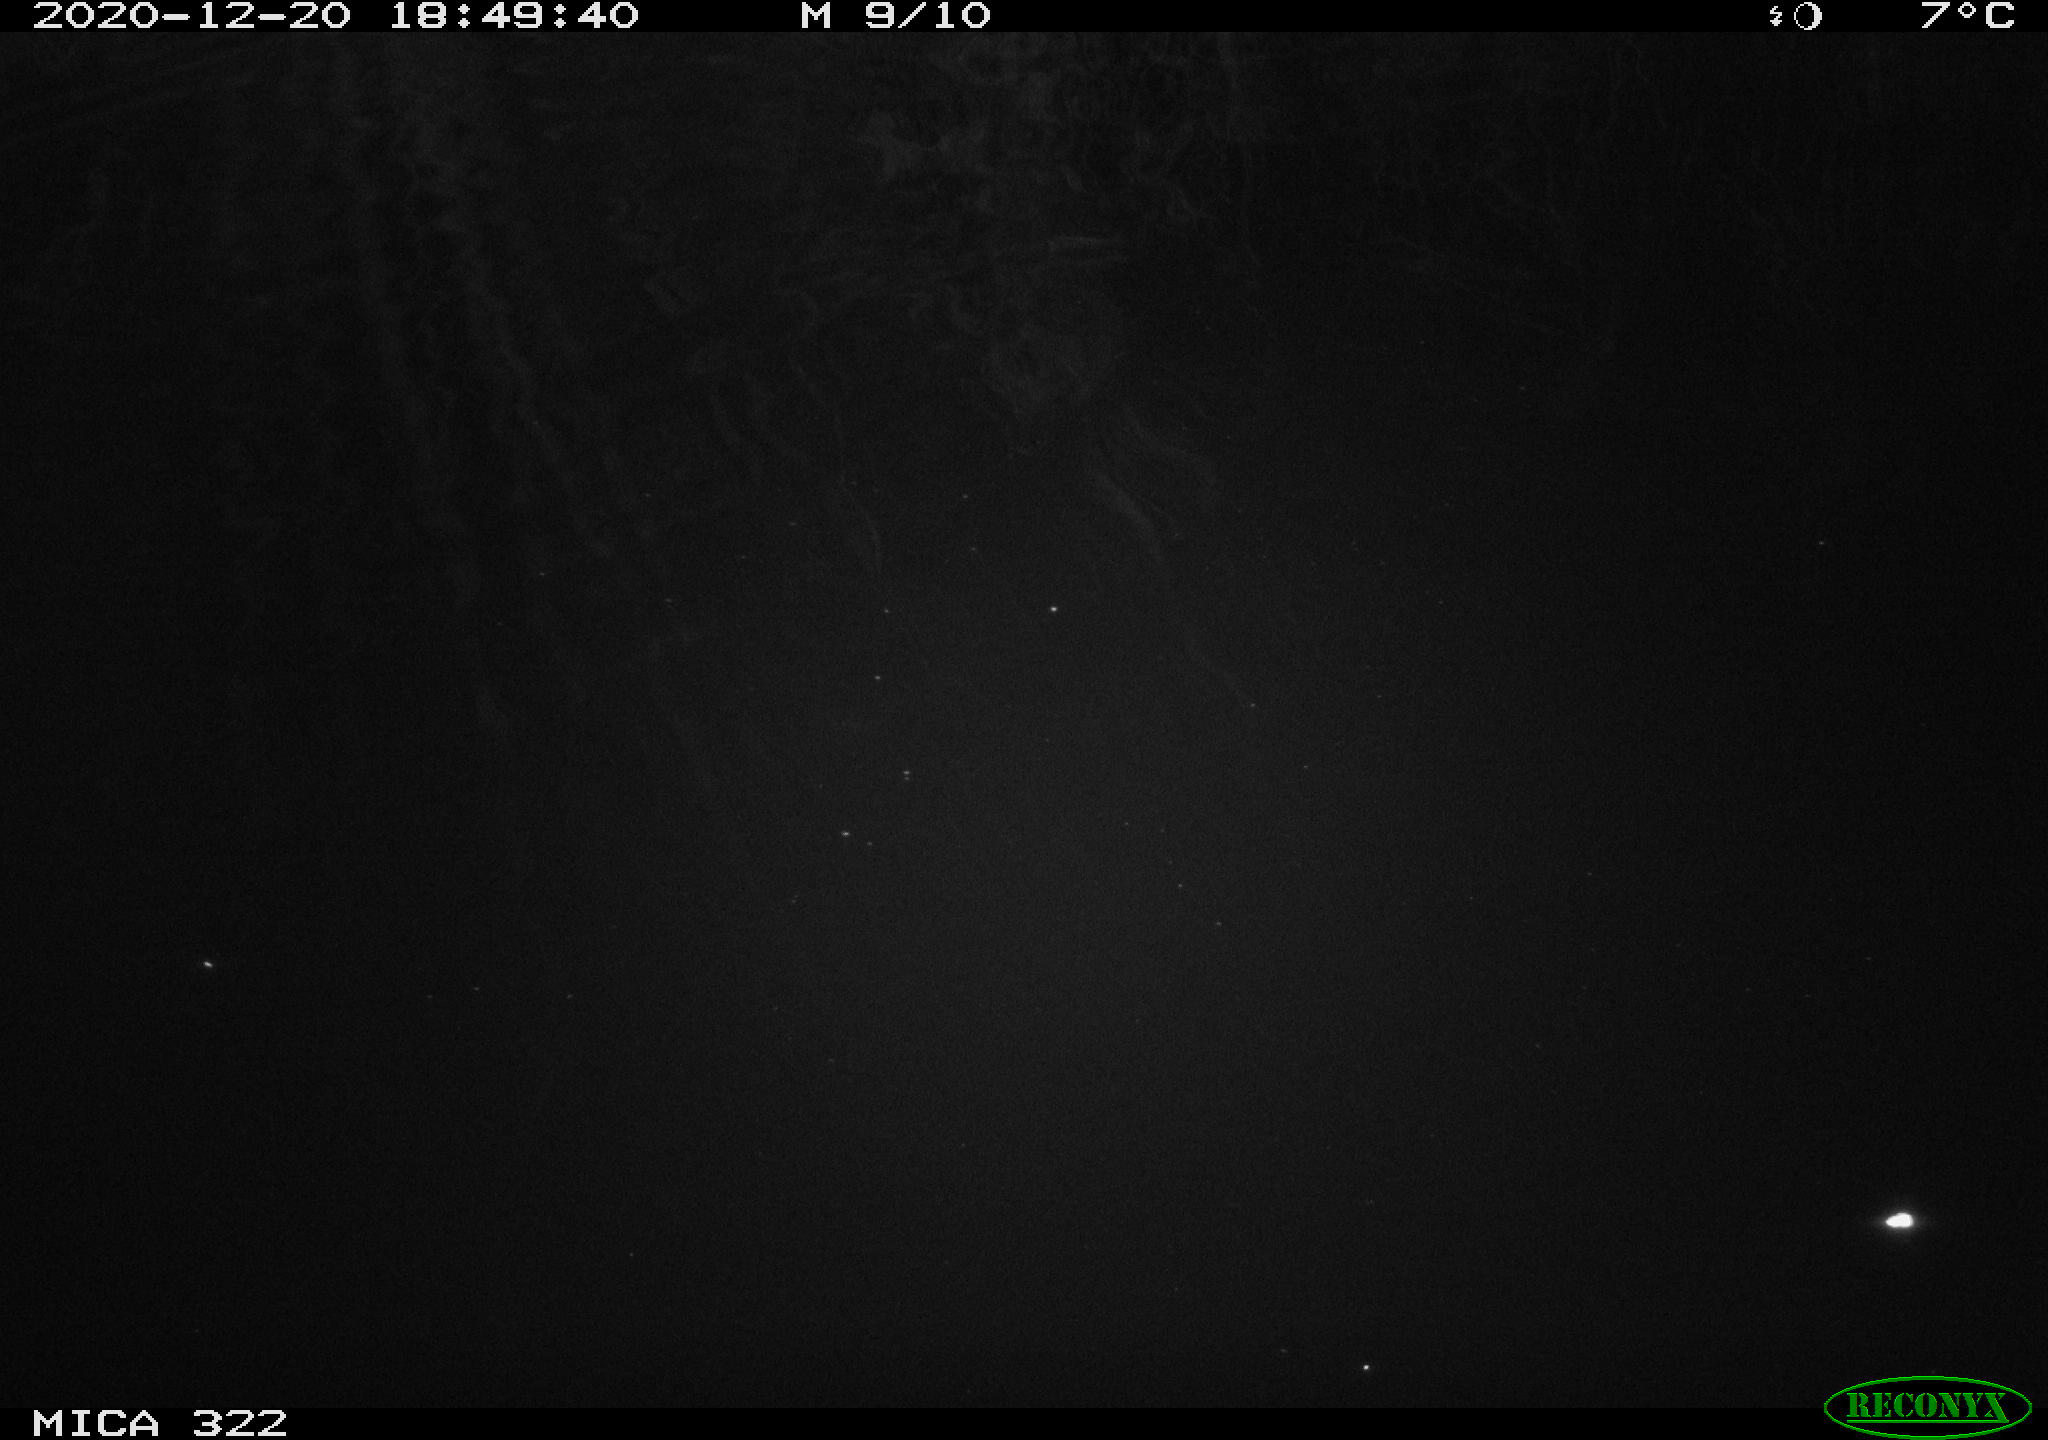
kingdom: Animalia
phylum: Chordata
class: Mammalia
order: Rodentia
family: Muridae
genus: Rattus
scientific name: Rattus norvegicus
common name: Brown rat
